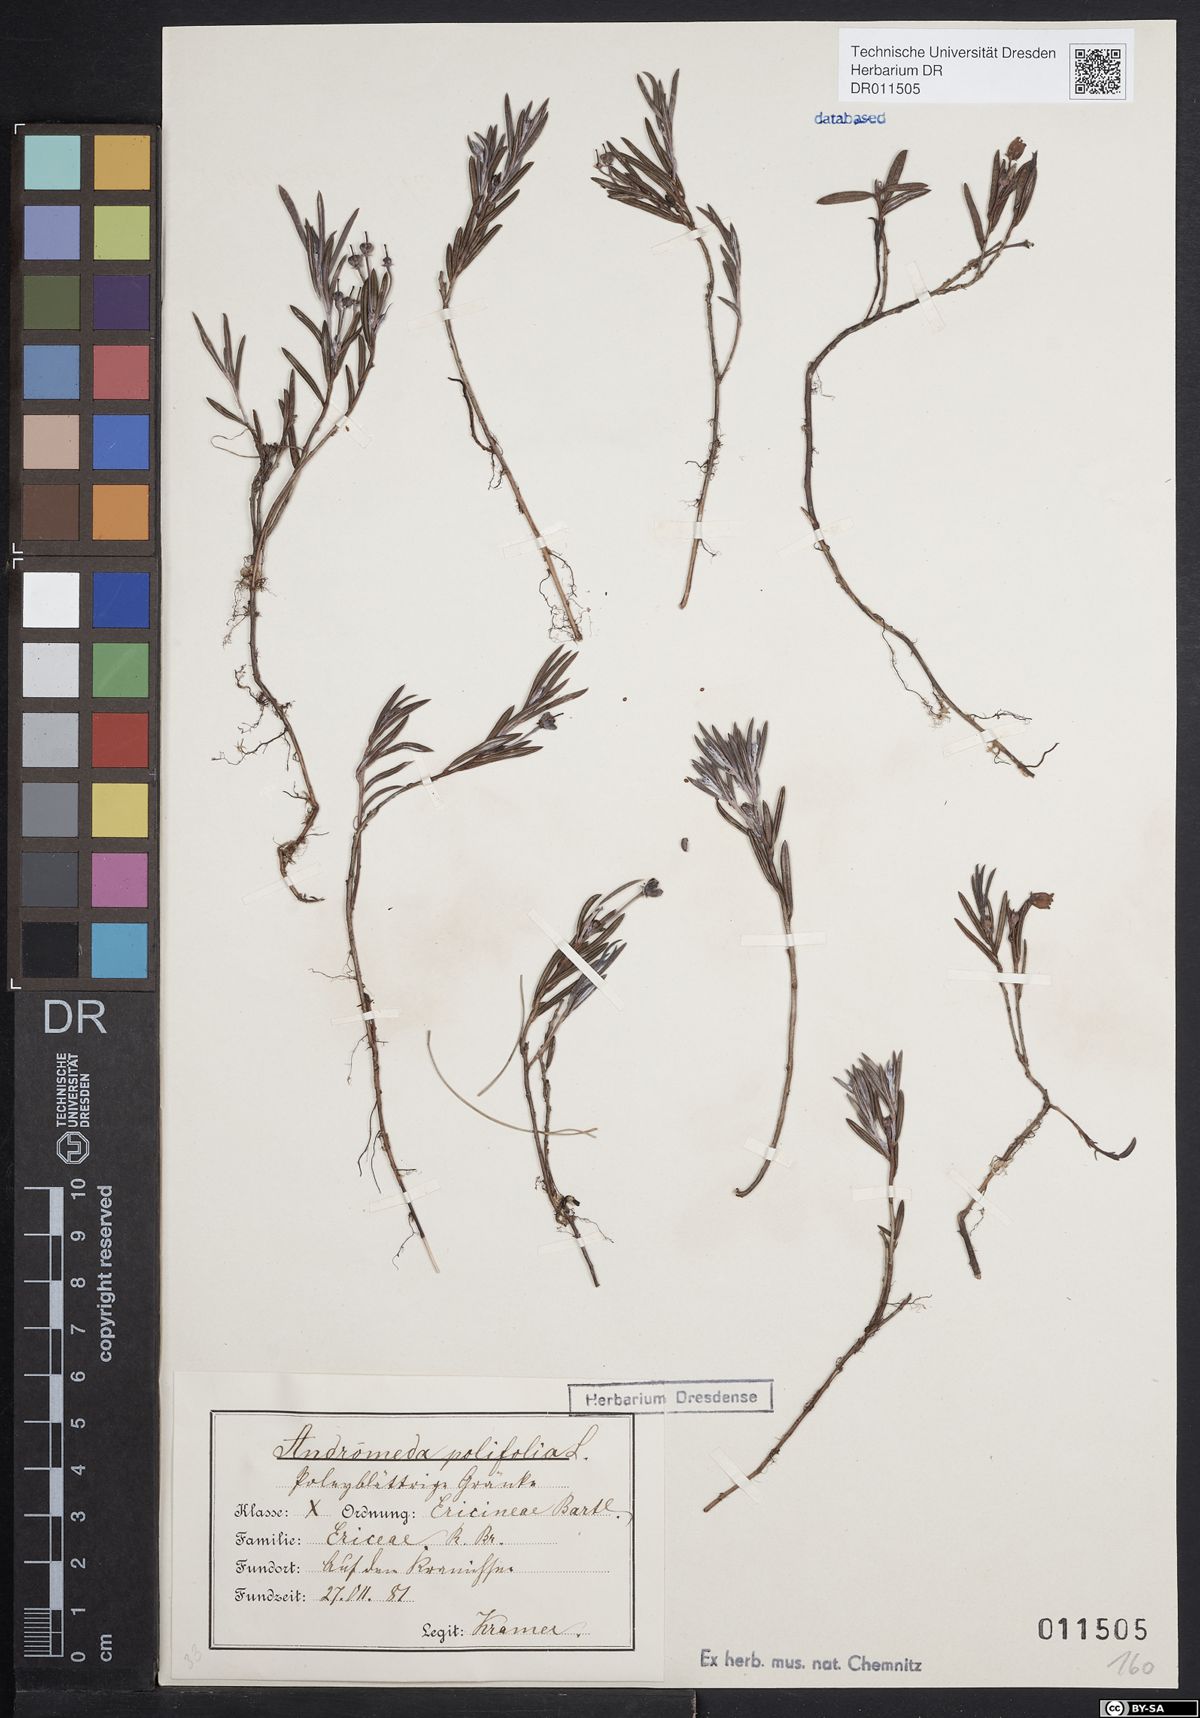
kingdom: Plantae
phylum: Tracheophyta
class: Magnoliopsida
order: Ericales
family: Ericaceae
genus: Andromeda
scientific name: Andromeda polifolia
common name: Bog-rosemary
